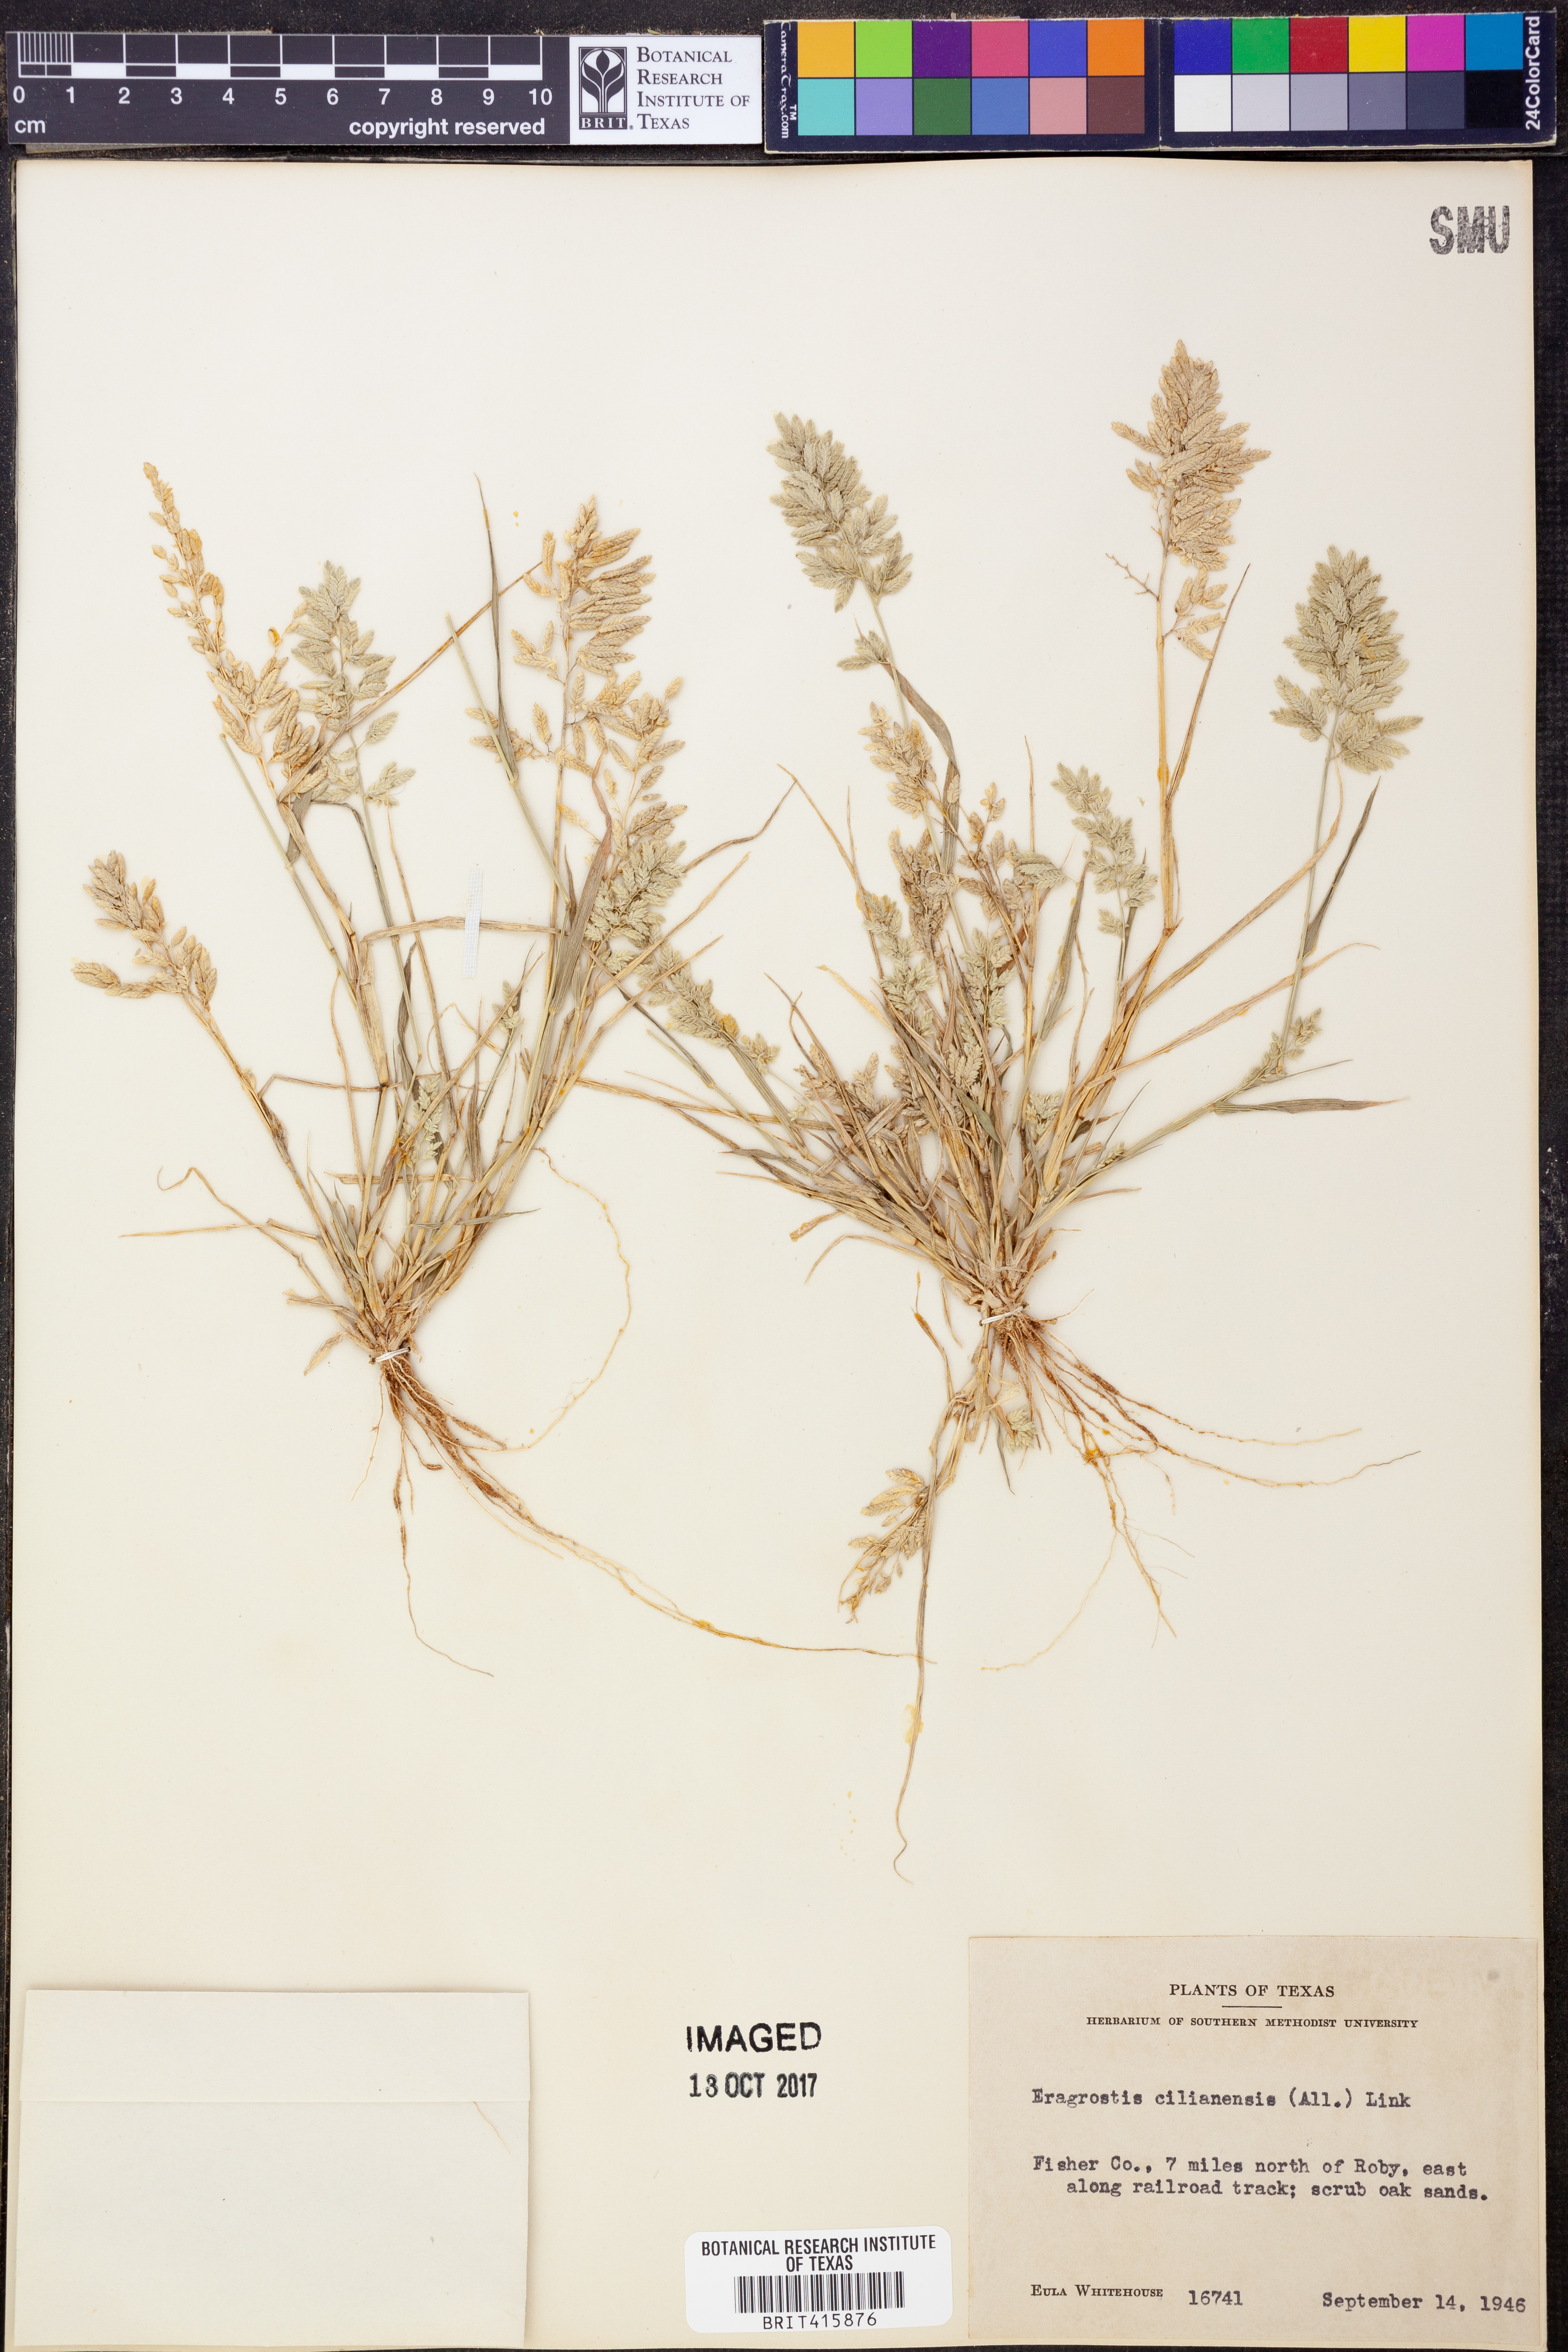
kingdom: Plantae
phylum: Tracheophyta
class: Liliopsida
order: Poales
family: Poaceae
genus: Eragrostis
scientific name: Eragrostis cilianensis
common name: Stinkgrass
